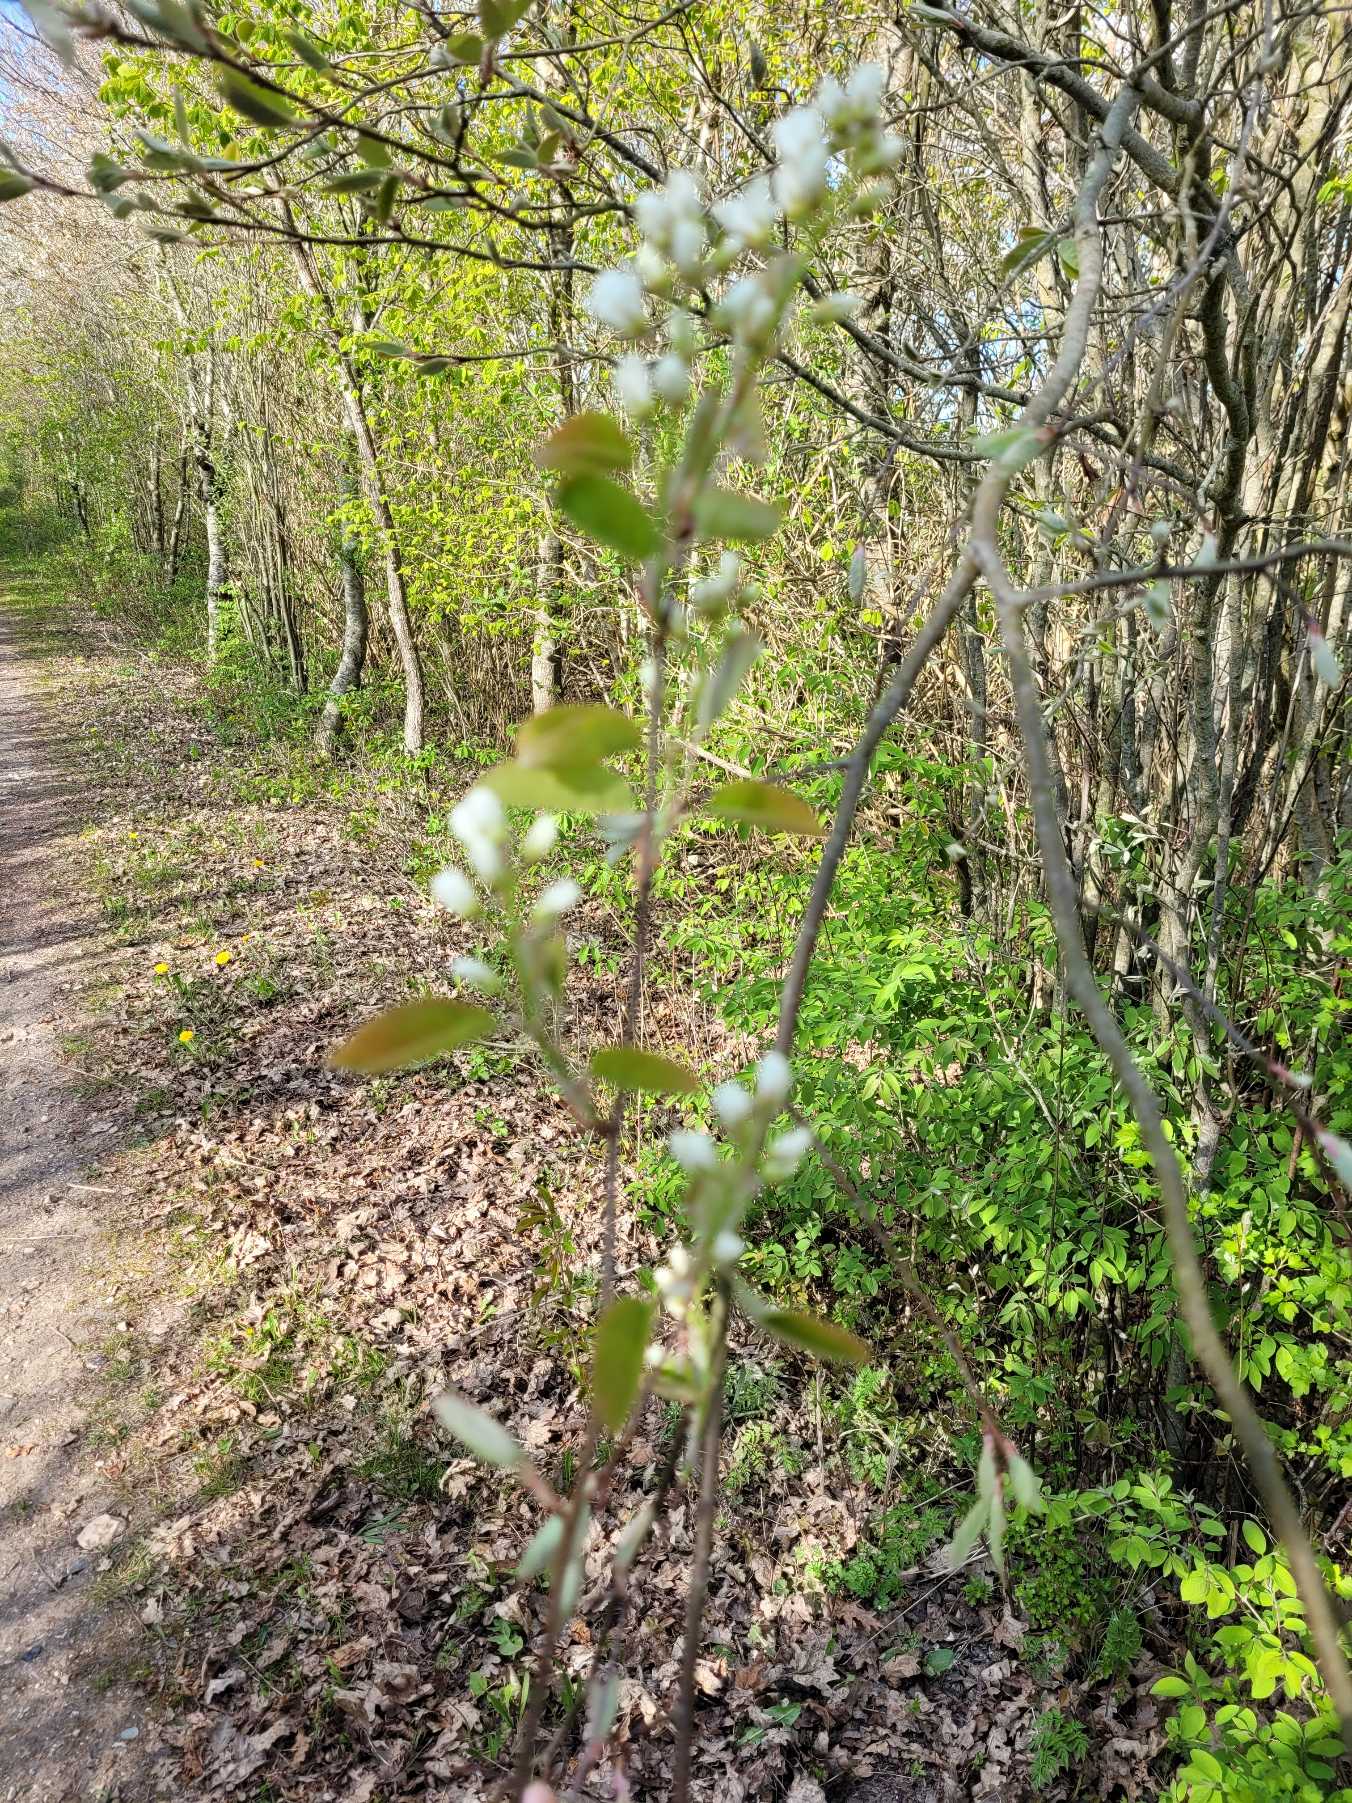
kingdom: Plantae
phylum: Tracheophyta
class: Magnoliopsida
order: Rosales
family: Rosaceae
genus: Amelanchier
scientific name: Amelanchier lamarckii
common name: Bærmispel
